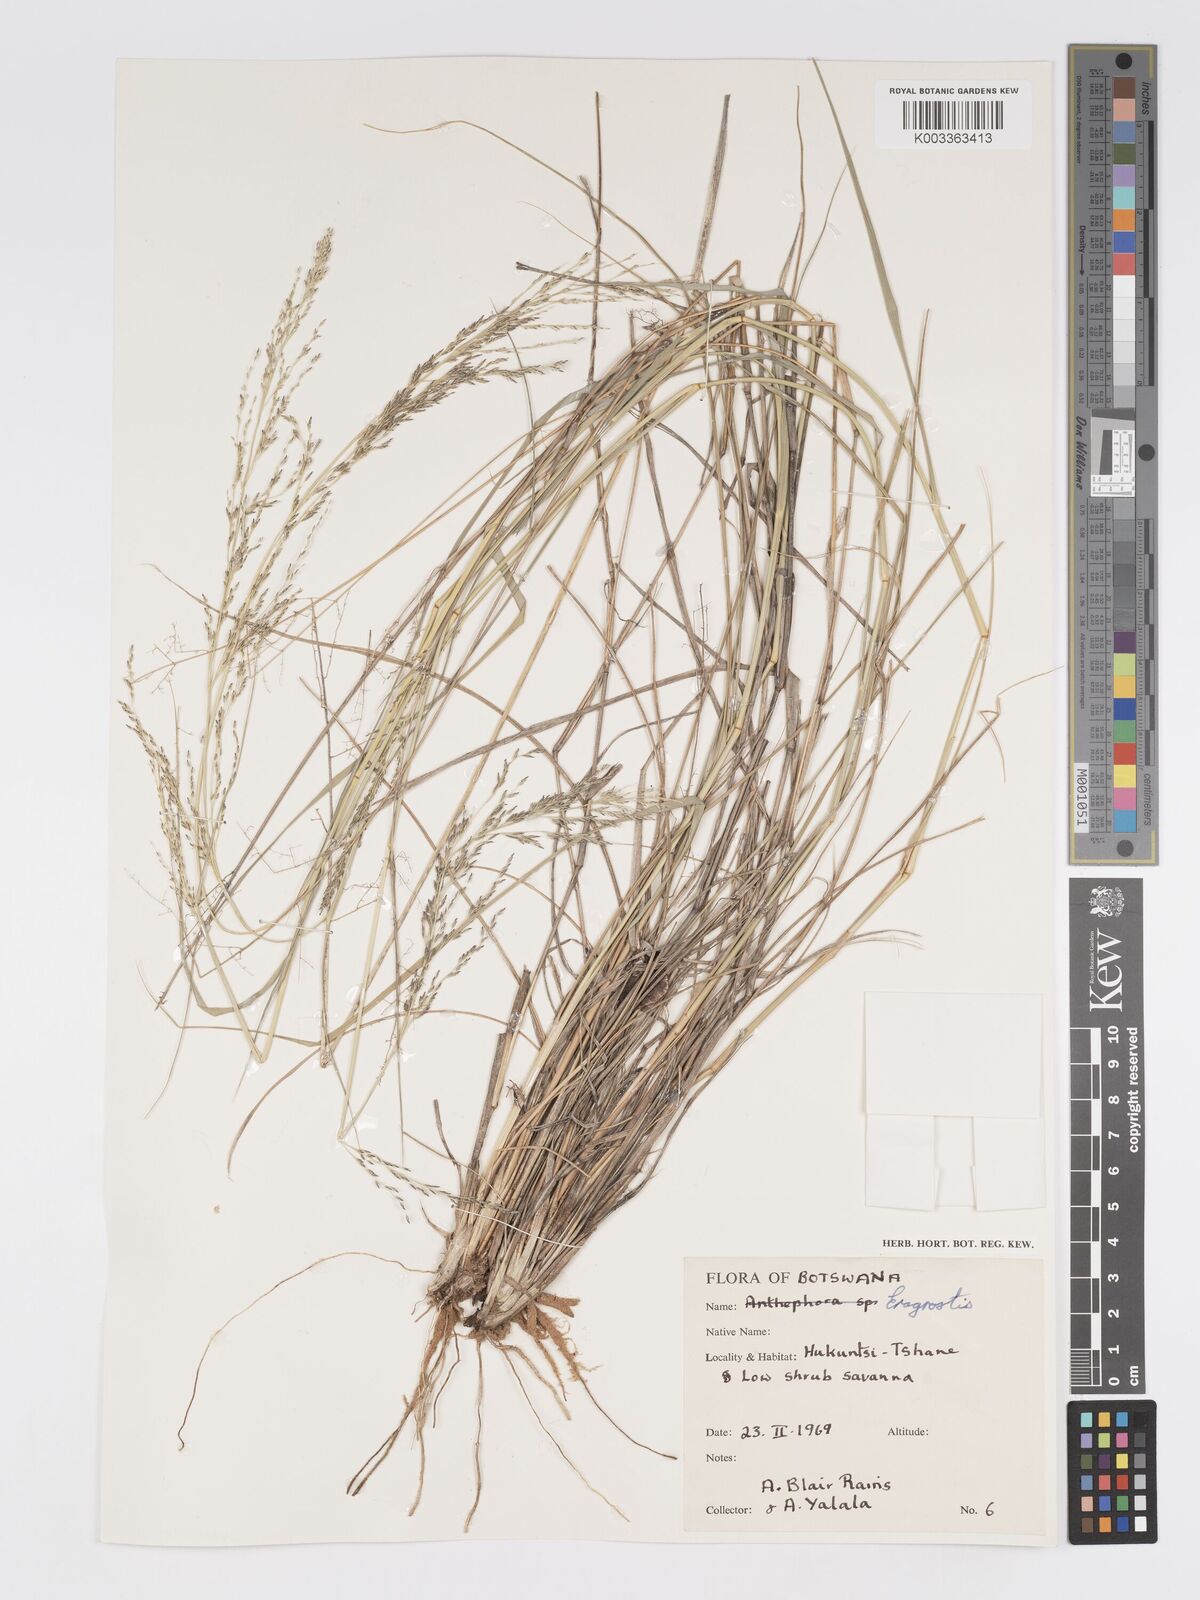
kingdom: Plantae
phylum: Tracheophyta
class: Liliopsida
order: Poales
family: Poaceae
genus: Eragrostis
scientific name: Eragrostis lehmanniana
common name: Lehmann lovegrass
